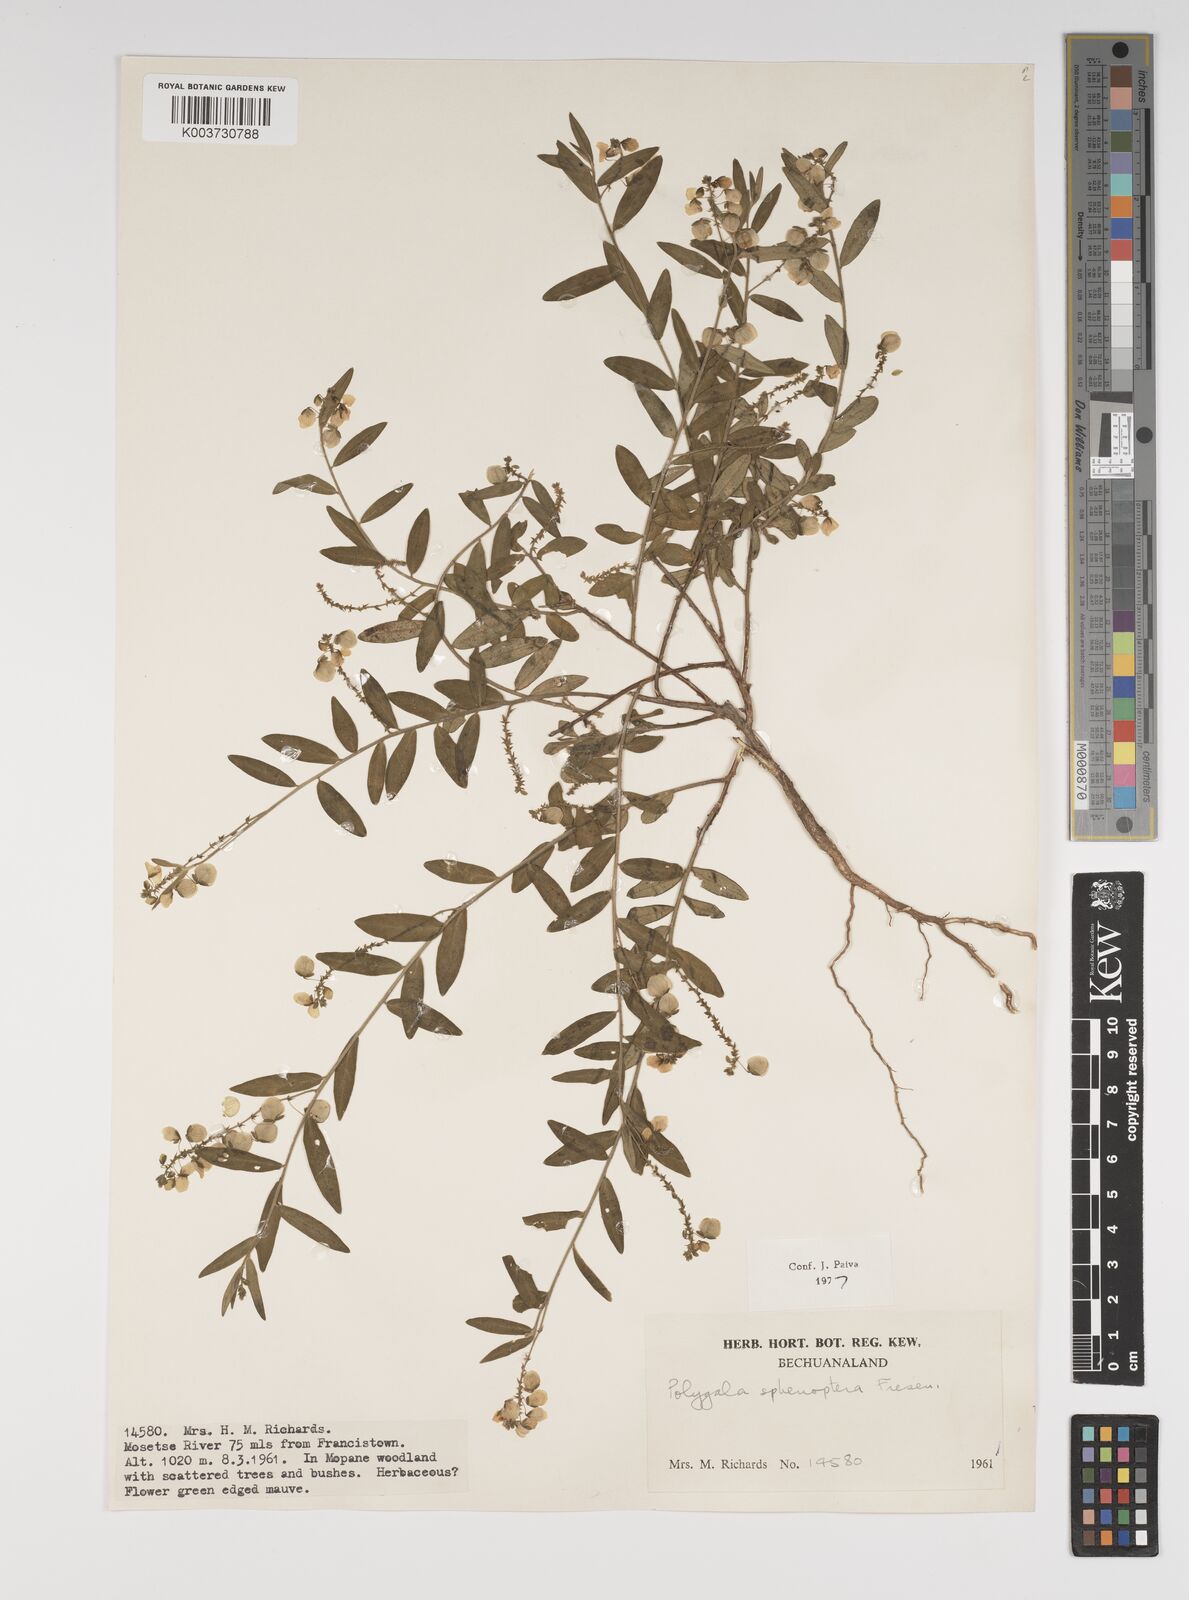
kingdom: Plantae
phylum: Tracheophyta
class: Magnoliopsida
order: Fabales
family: Polygalaceae
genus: Polygala
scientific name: Polygala sphenoptera
